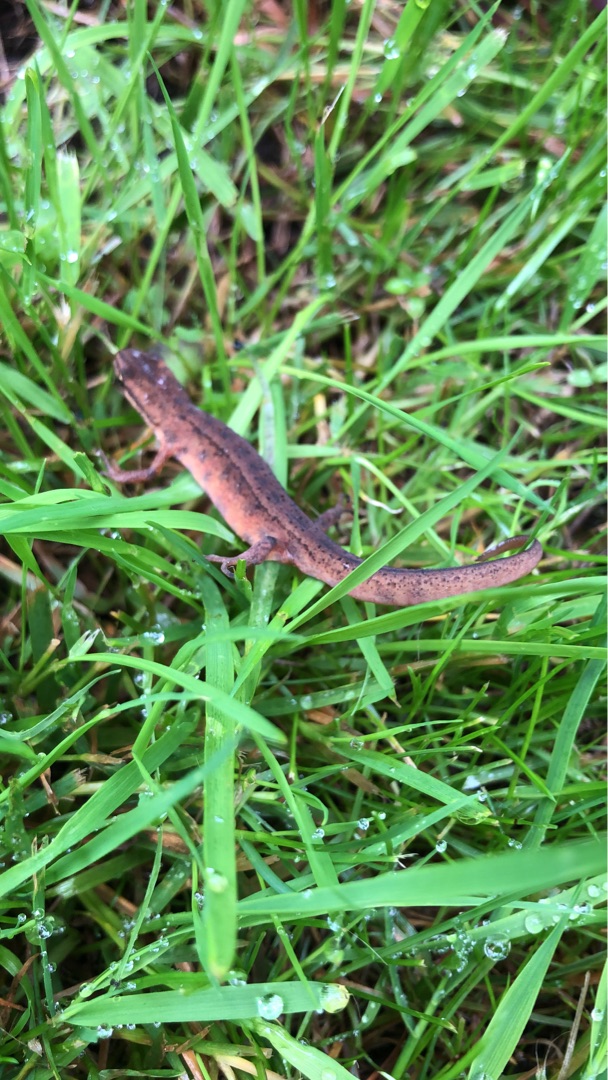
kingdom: Animalia
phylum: Chordata
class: Amphibia
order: Caudata
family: Salamandridae
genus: Lissotriton
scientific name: Lissotriton vulgaris
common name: Lille vandsalamander
